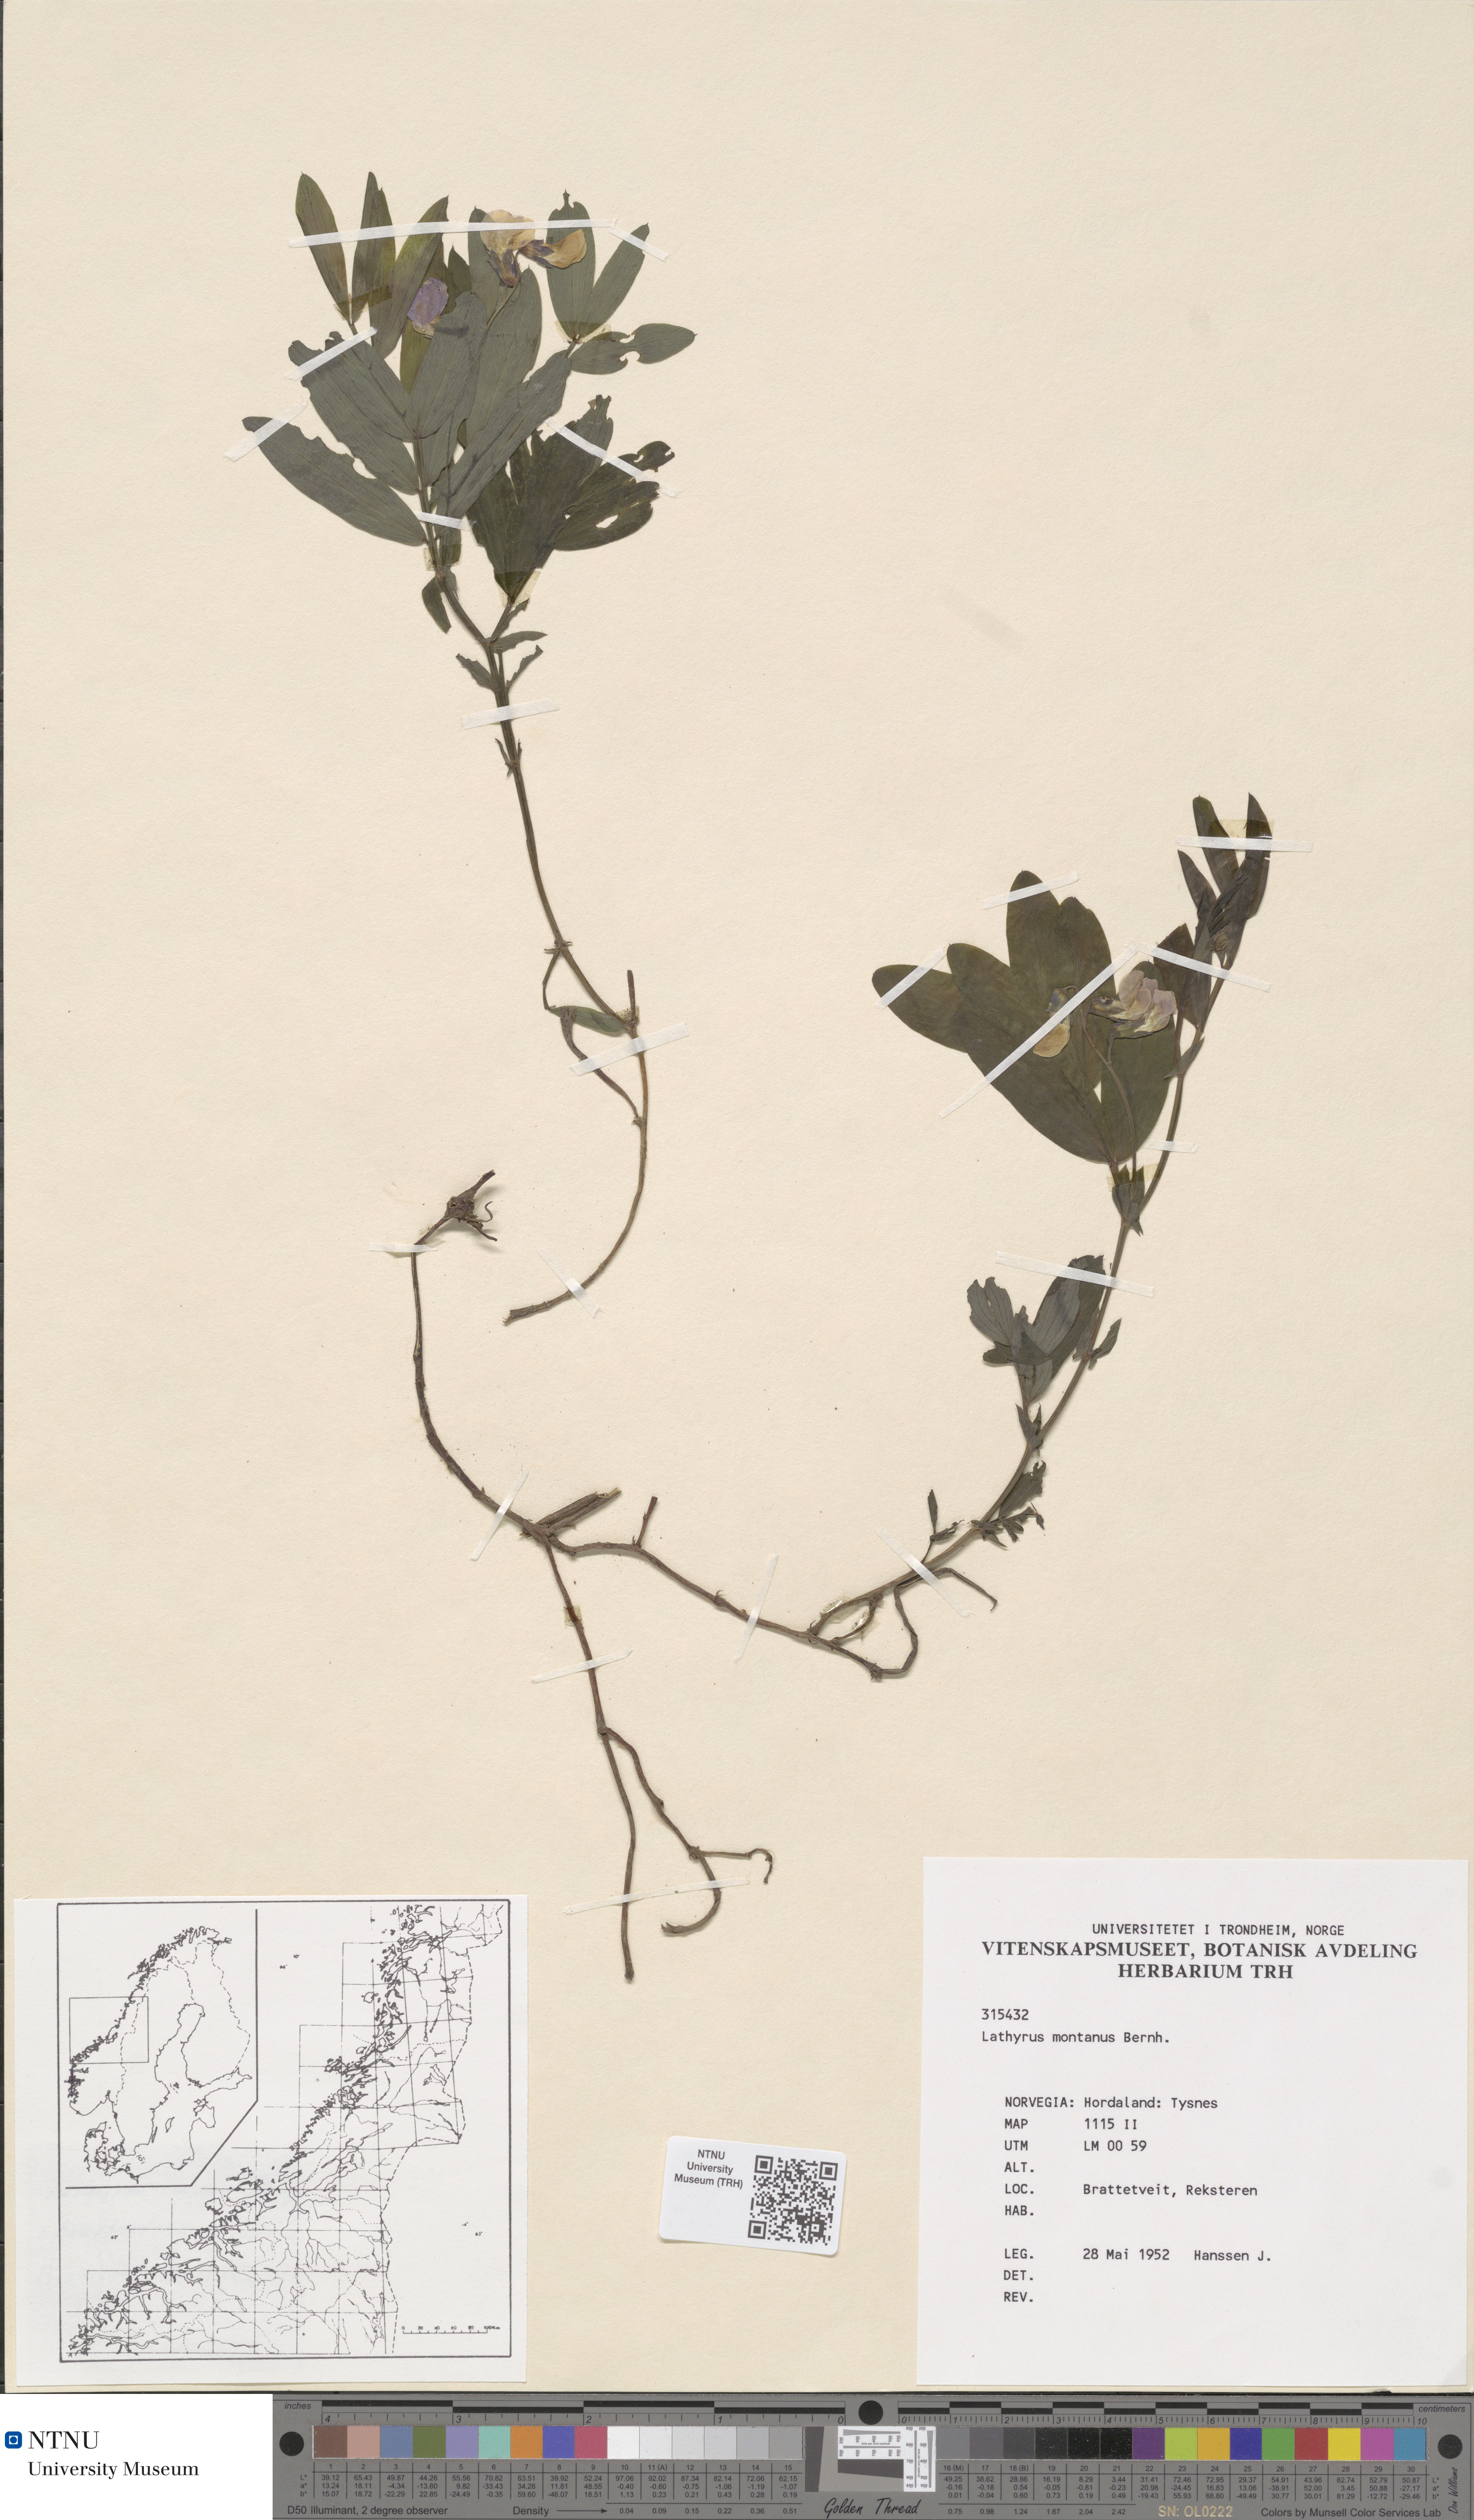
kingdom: Plantae
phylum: Tracheophyta
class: Magnoliopsida
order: Fabales
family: Fabaceae
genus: Lathyrus
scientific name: Lathyrus linifolius
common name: Bitter-vetch
